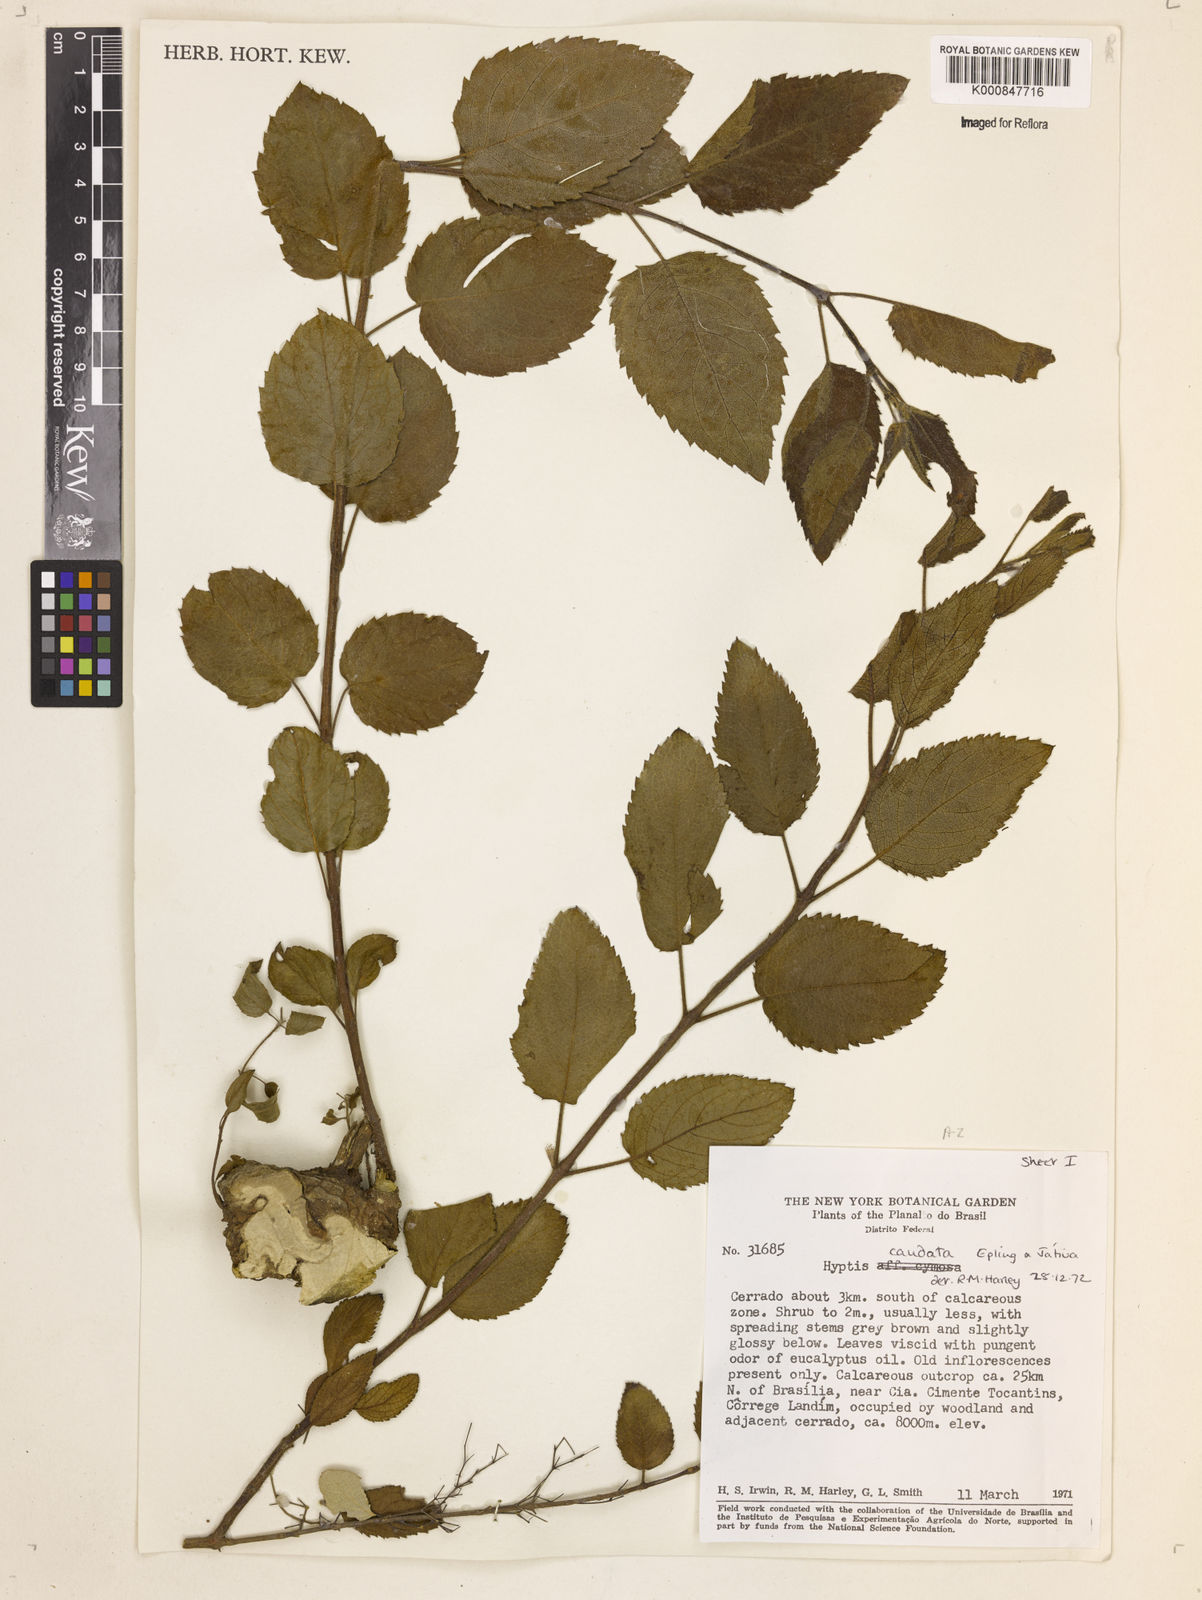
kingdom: Plantae
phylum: Tracheophyta
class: Magnoliopsida
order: Lamiales
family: Lamiaceae
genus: Hyptidendron
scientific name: Hyptidendron
